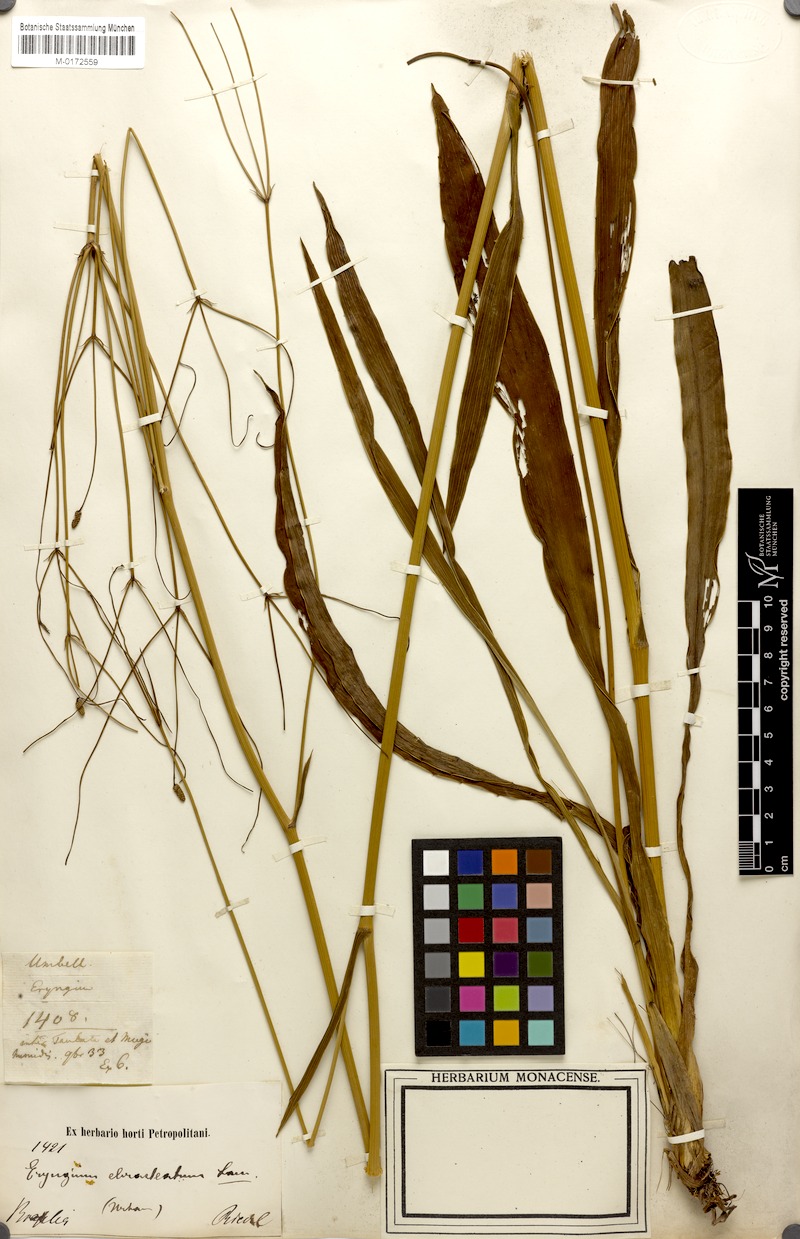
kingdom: Plantae
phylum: Tracheophyta
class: Magnoliopsida
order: Apiales
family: Apiaceae
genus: Eryngium
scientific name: Eryngium ebracteatum
